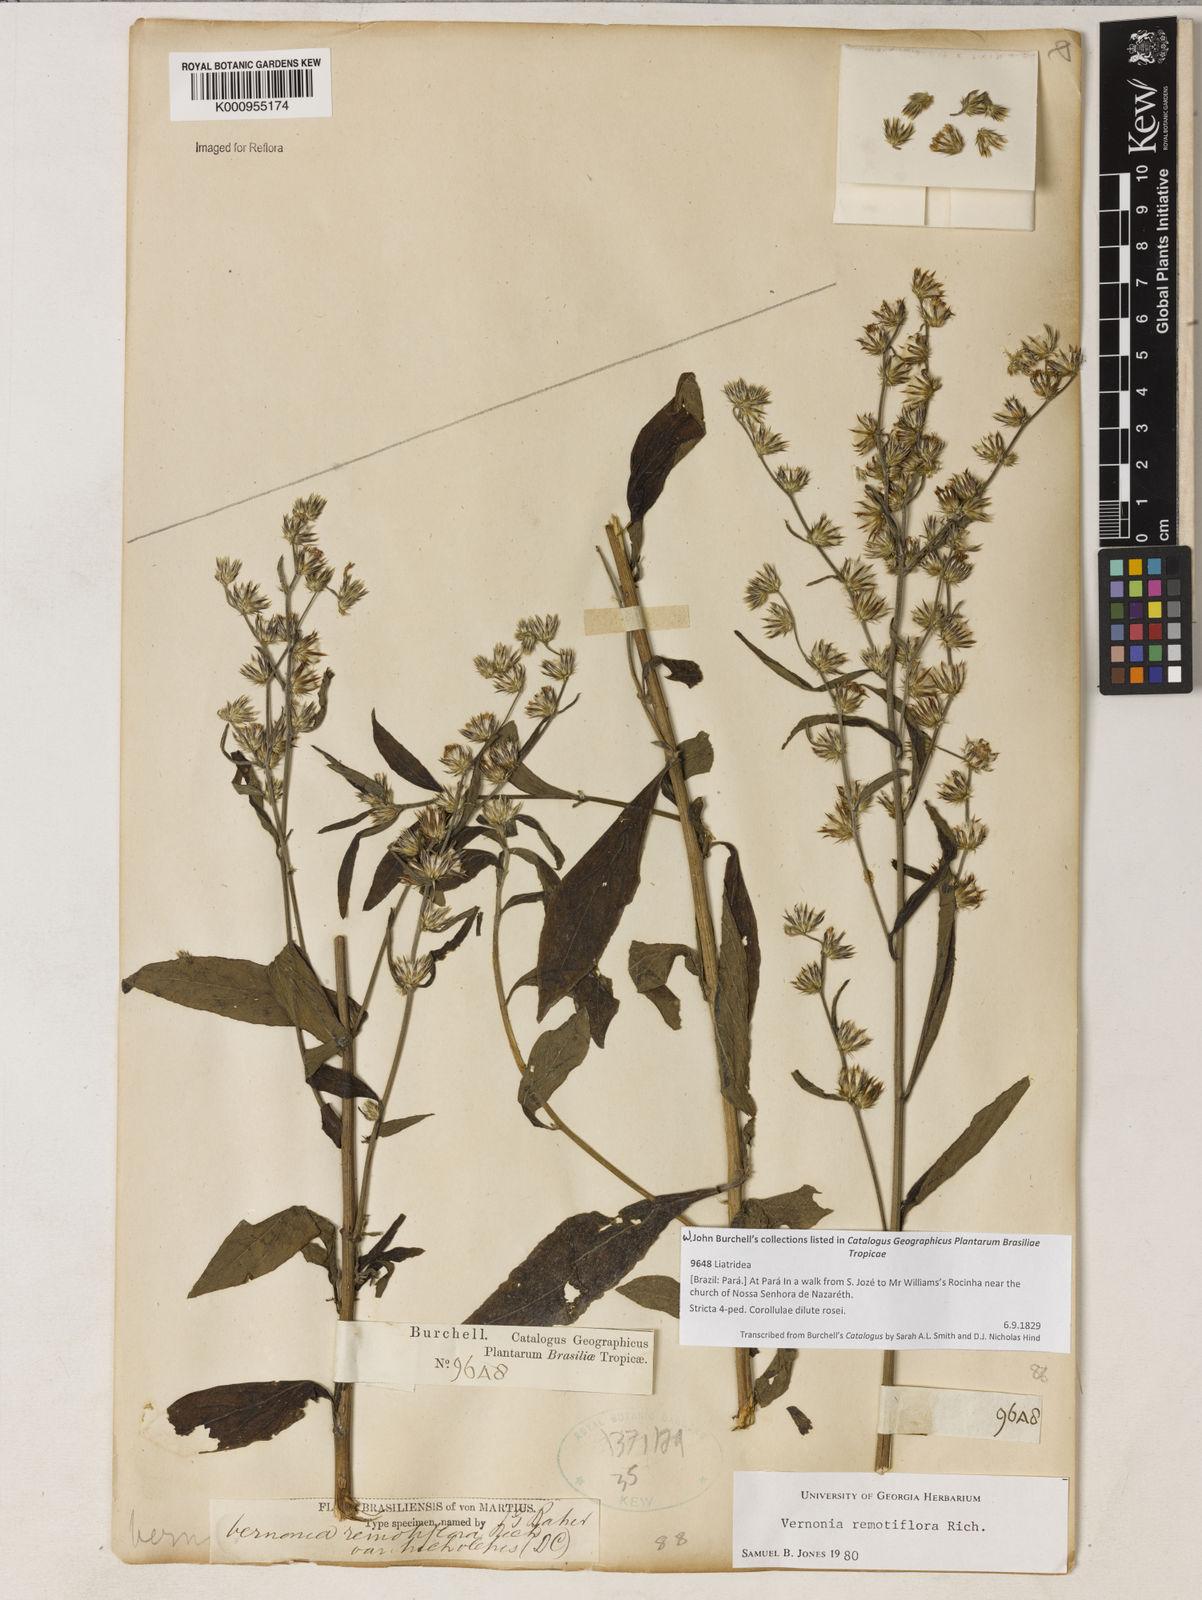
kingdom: Plantae
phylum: Tracheophyta
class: Magnoliopsida
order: Asterales
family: Asteraceae
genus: Lepidaploa
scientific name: Lepidaploa remotiflora
